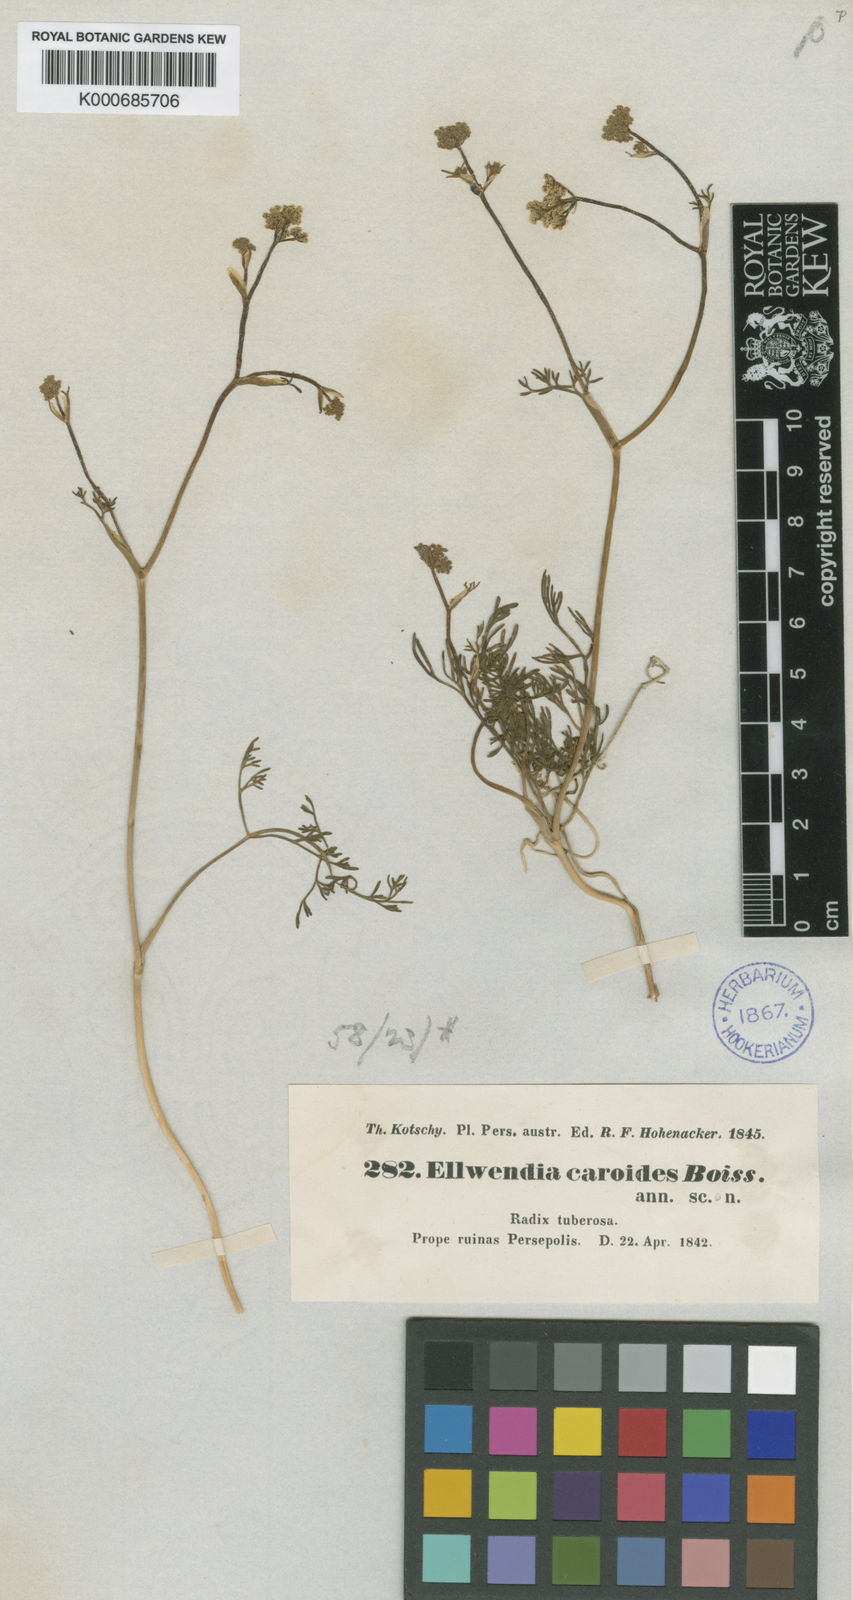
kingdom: Plantae
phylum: Tracheophyta
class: Magnoliopsida
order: Apiales
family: Apiaceae
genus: Elwendia
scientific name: Elwendia caroides
